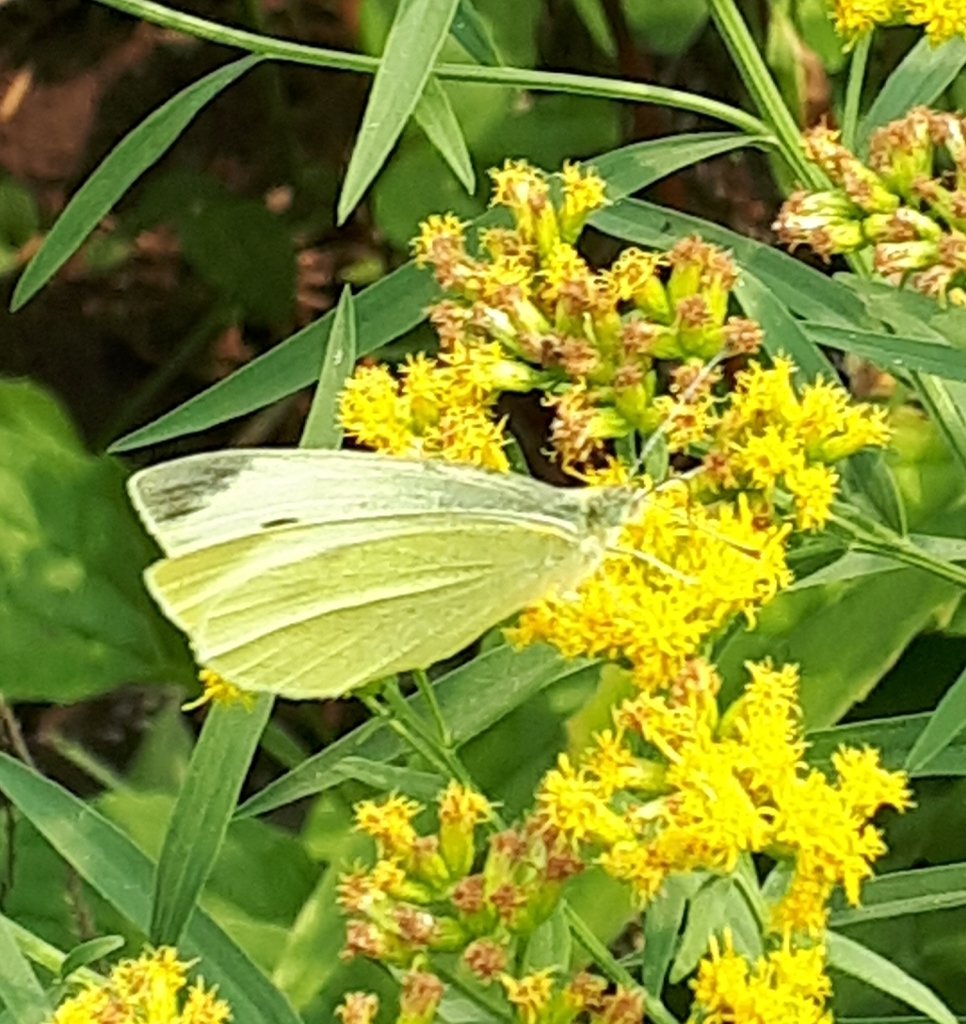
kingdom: Animalia
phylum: Arthropoda
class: Insecta
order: Lepidoptera
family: Pieridae
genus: Pieris
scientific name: Pieris rapae
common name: Cabbage White
